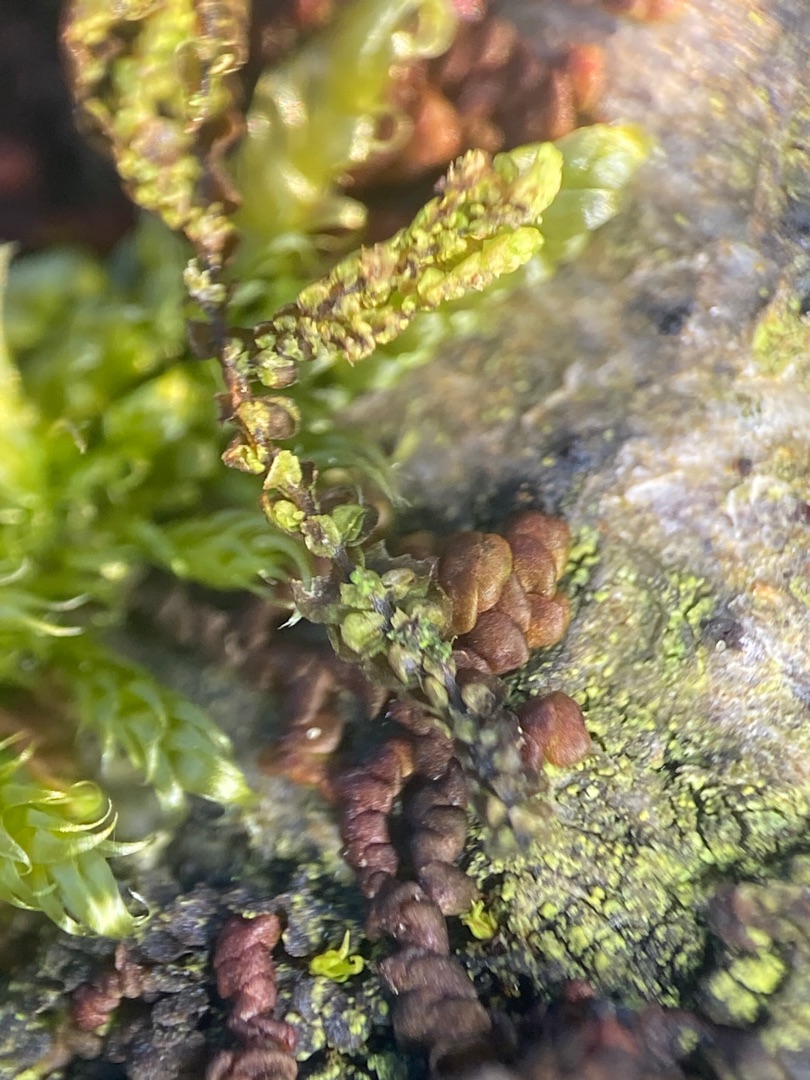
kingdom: Plantae
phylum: Marchantiophyta
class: Jungermanniopsida
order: Porellales
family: Frullaniaceae
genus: Frullania
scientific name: Frullania dilatata
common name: Mat bronzemos
